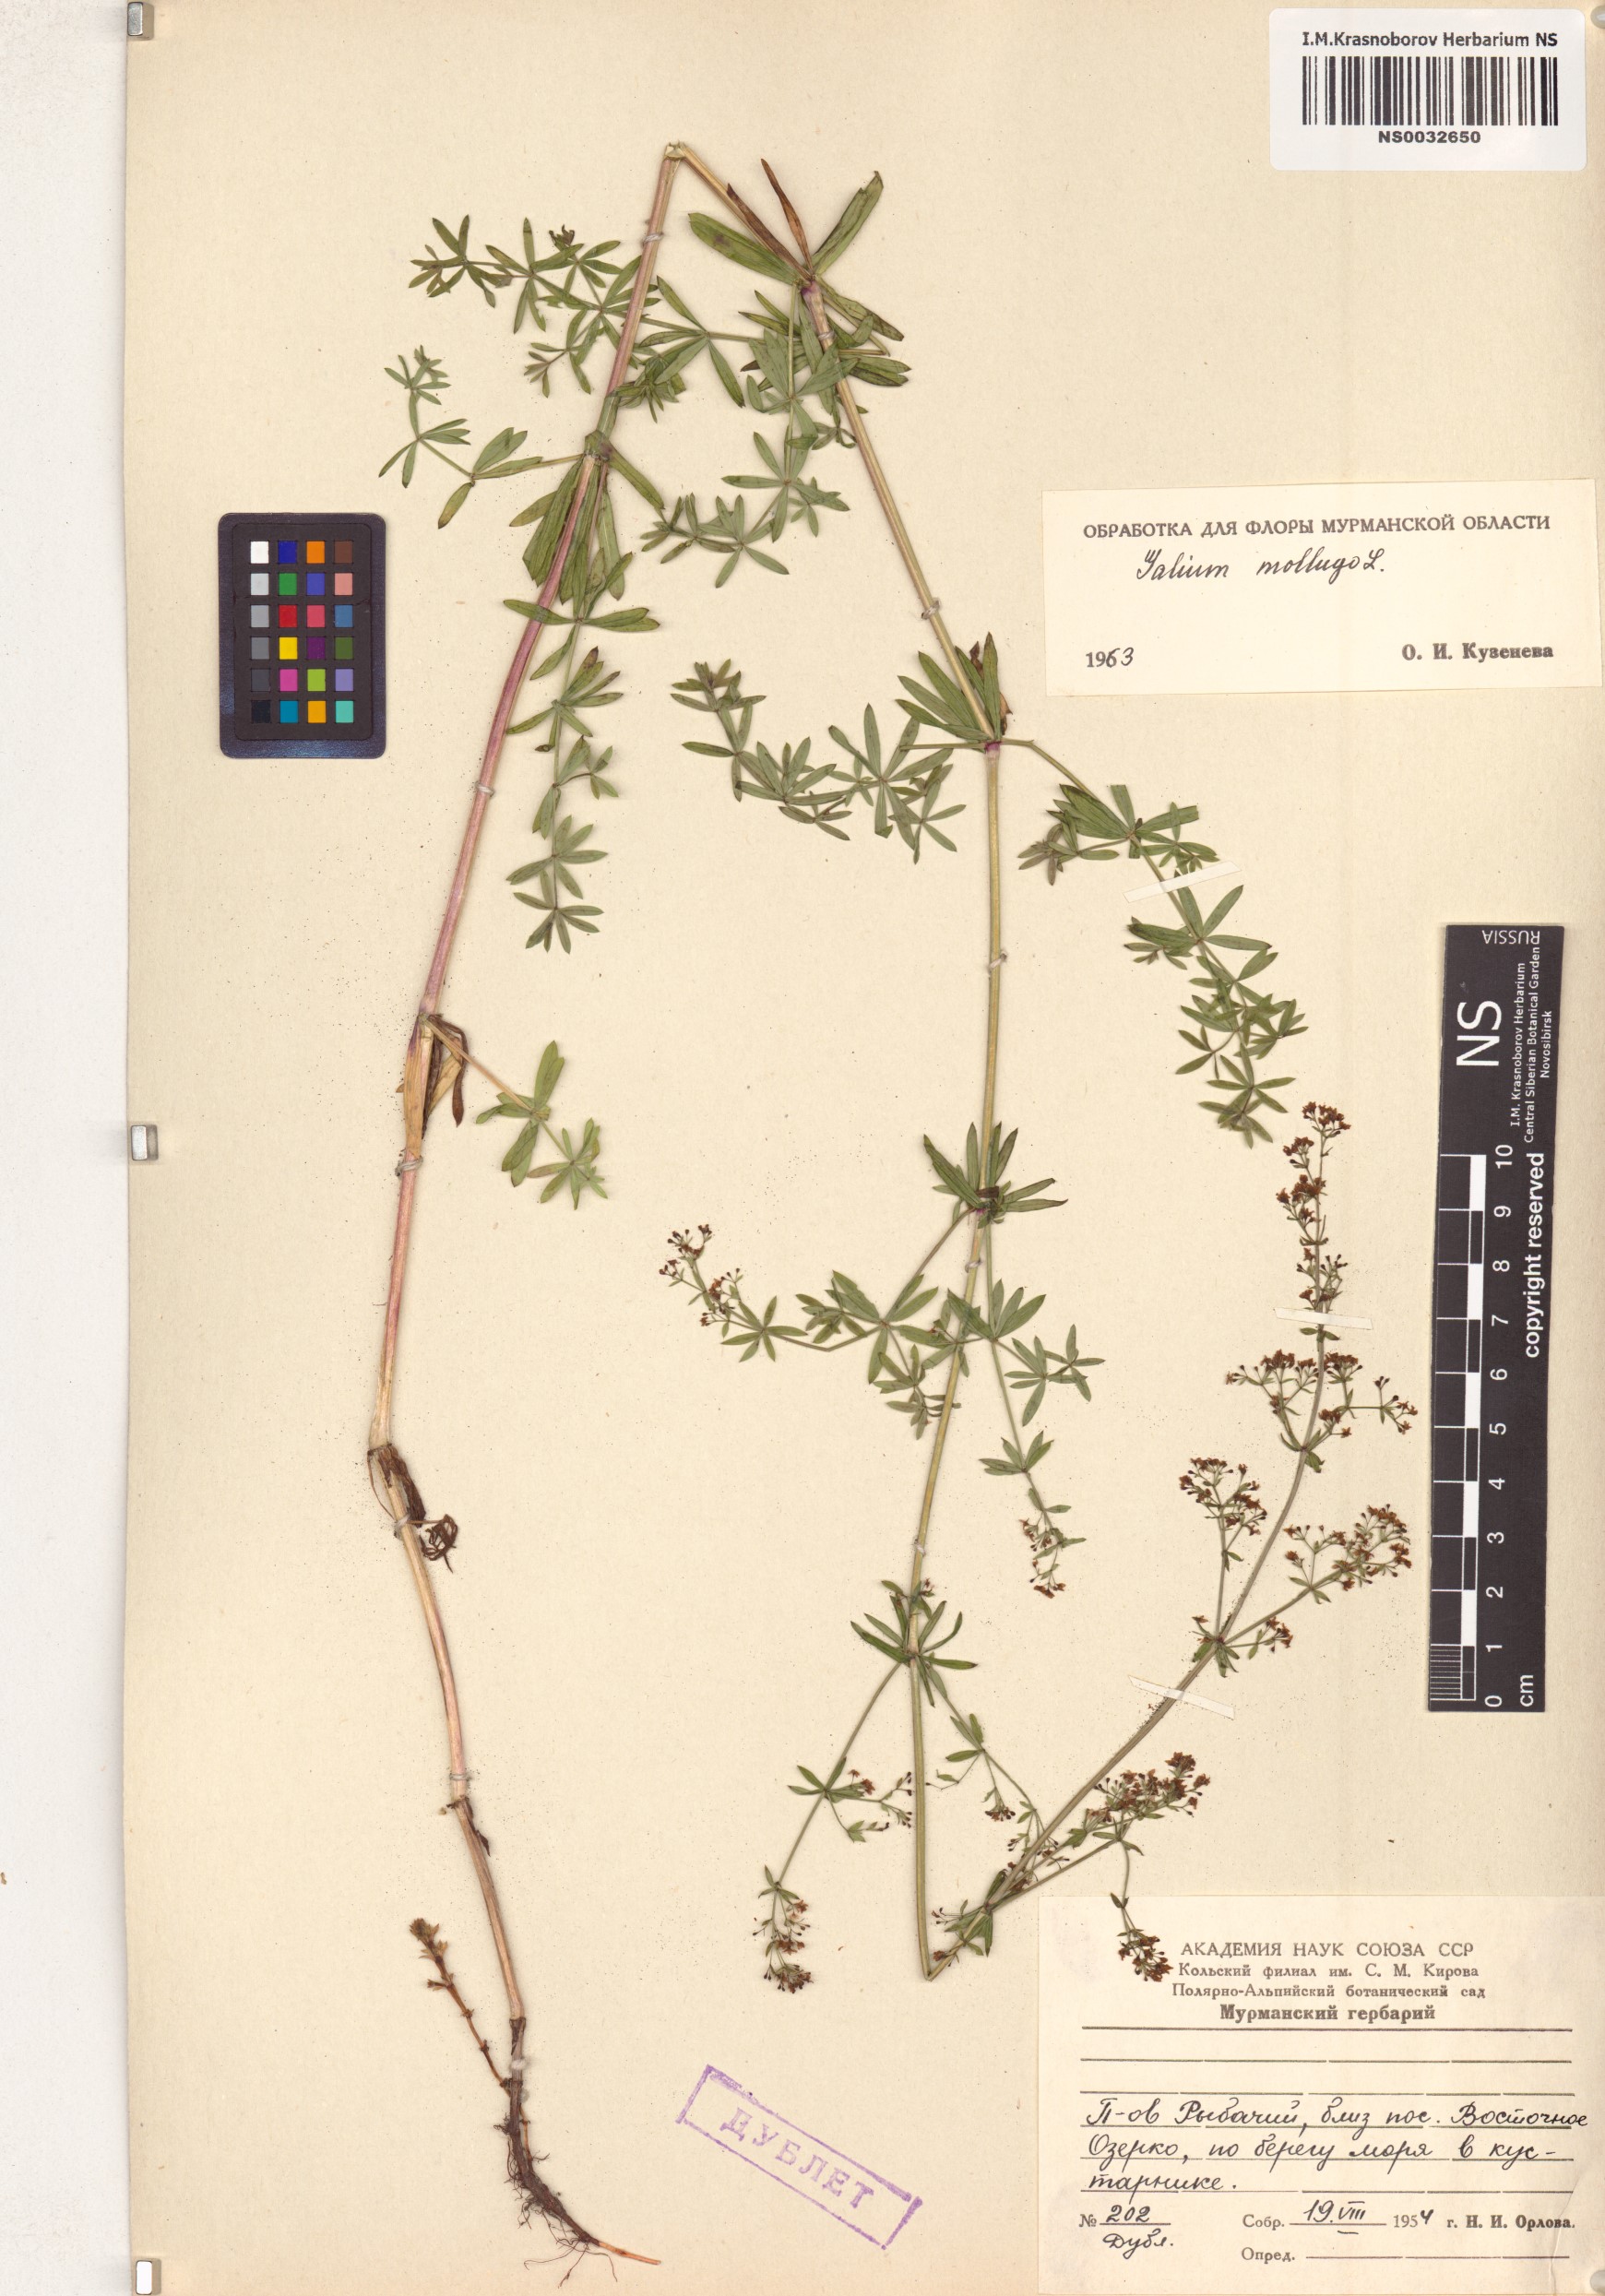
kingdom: Plantae
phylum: Tracheophyta
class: Magnoliopsida
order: Gentianales
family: Rubiaceae
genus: Galium
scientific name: Galium mollugo
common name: Hedge bedstraw
